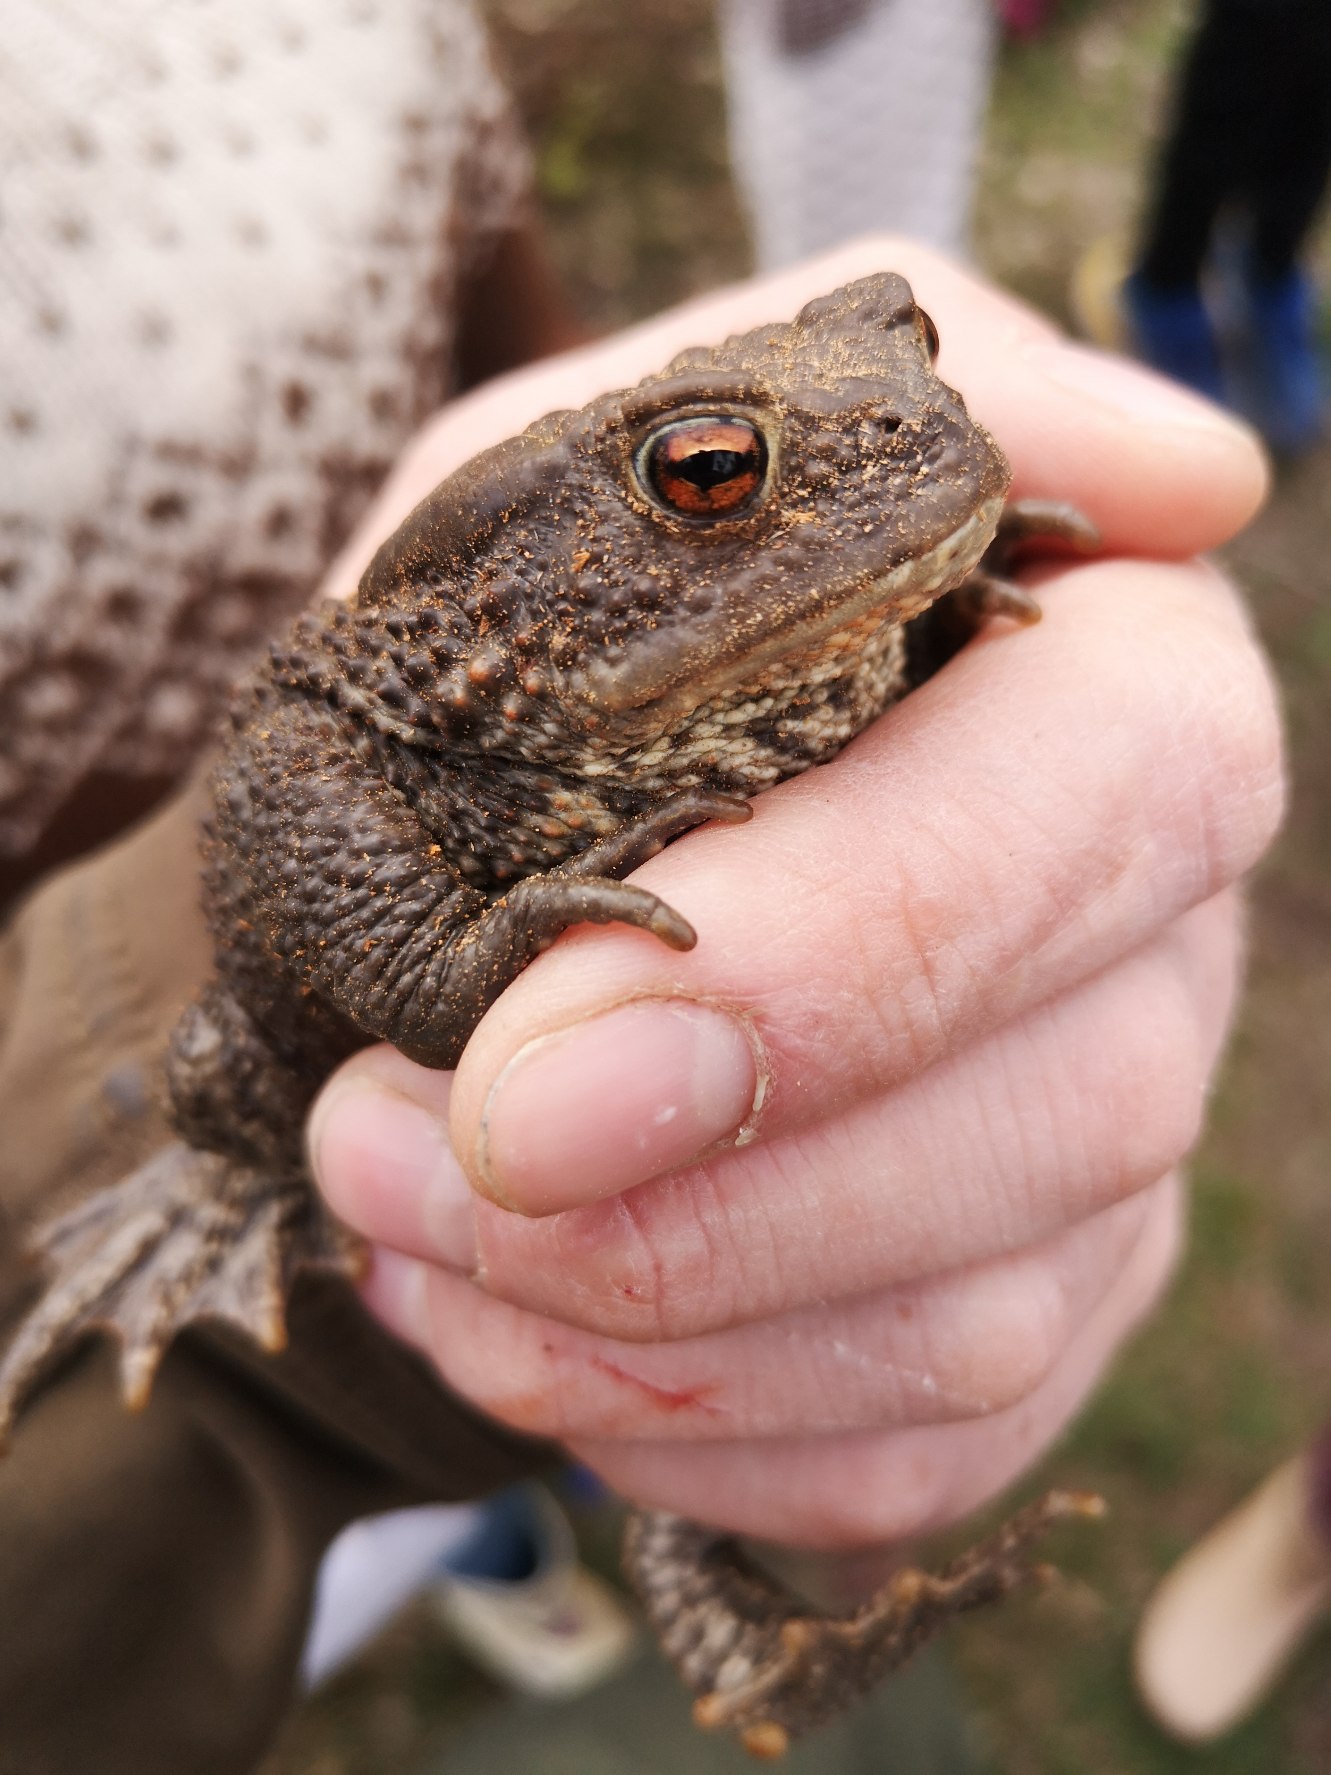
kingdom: Animalia
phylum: Chordata
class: Amphibia
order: Anura
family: Bufonidae
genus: Bufo
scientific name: Bufo bufo
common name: Skrubtudse
